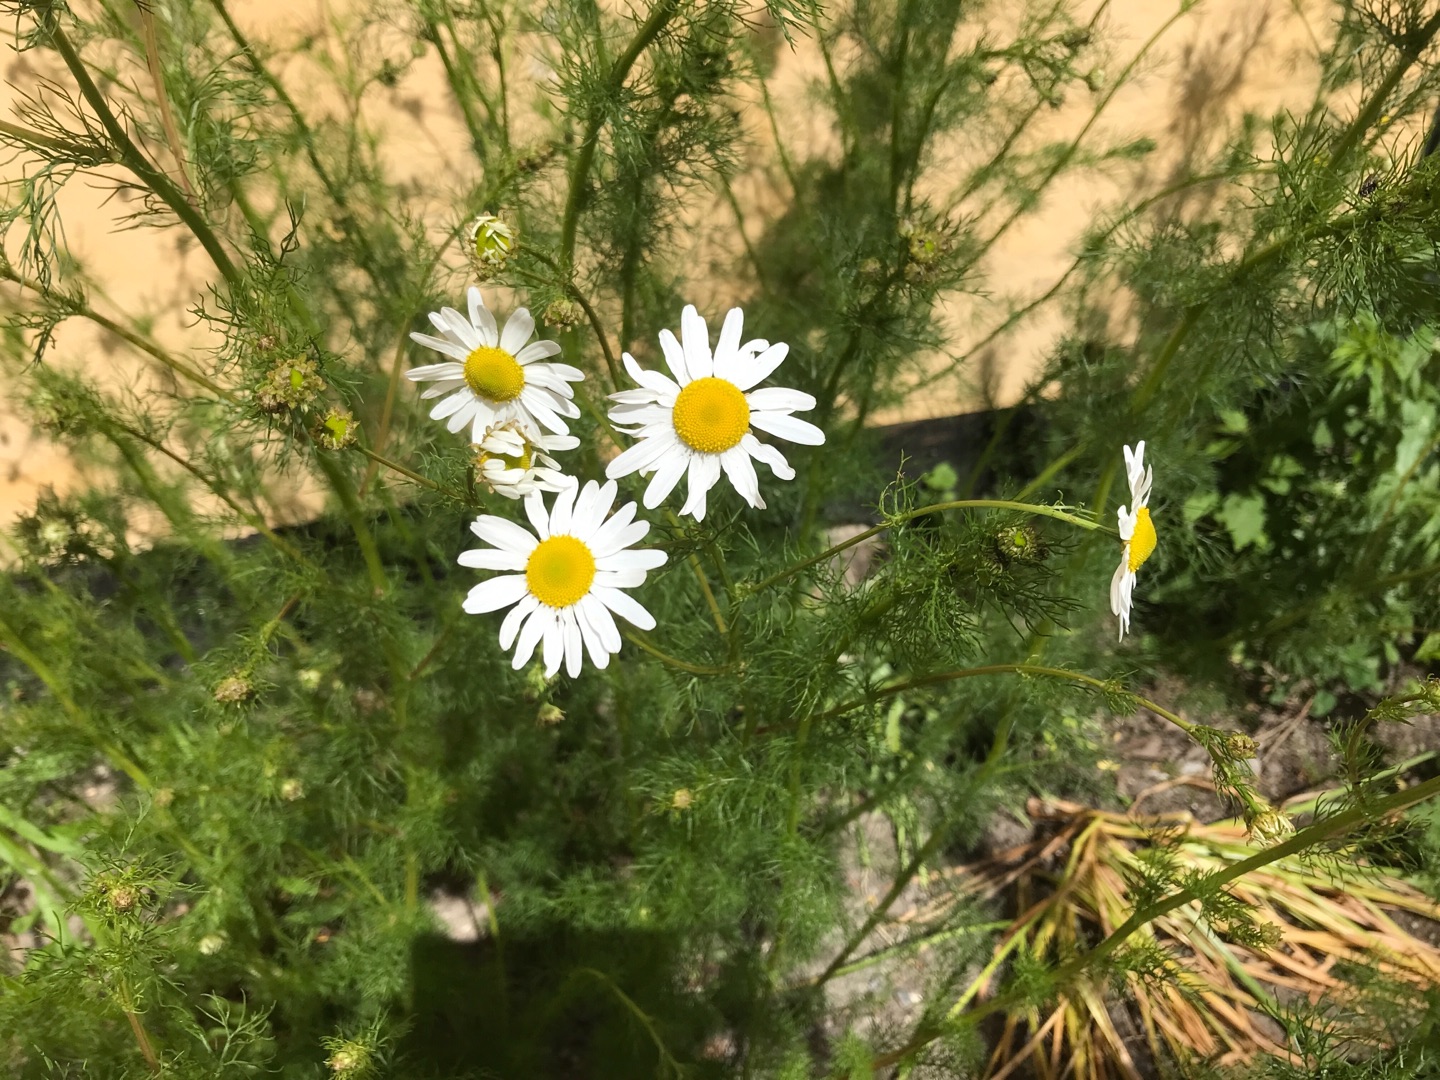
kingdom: Plantae
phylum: Tracheophyta
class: Magnoliopsida
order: Asterales
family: Asteraceae
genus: Tripleurospermum
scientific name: Tripleurospermum inodorum
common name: Lugtløs kamille
